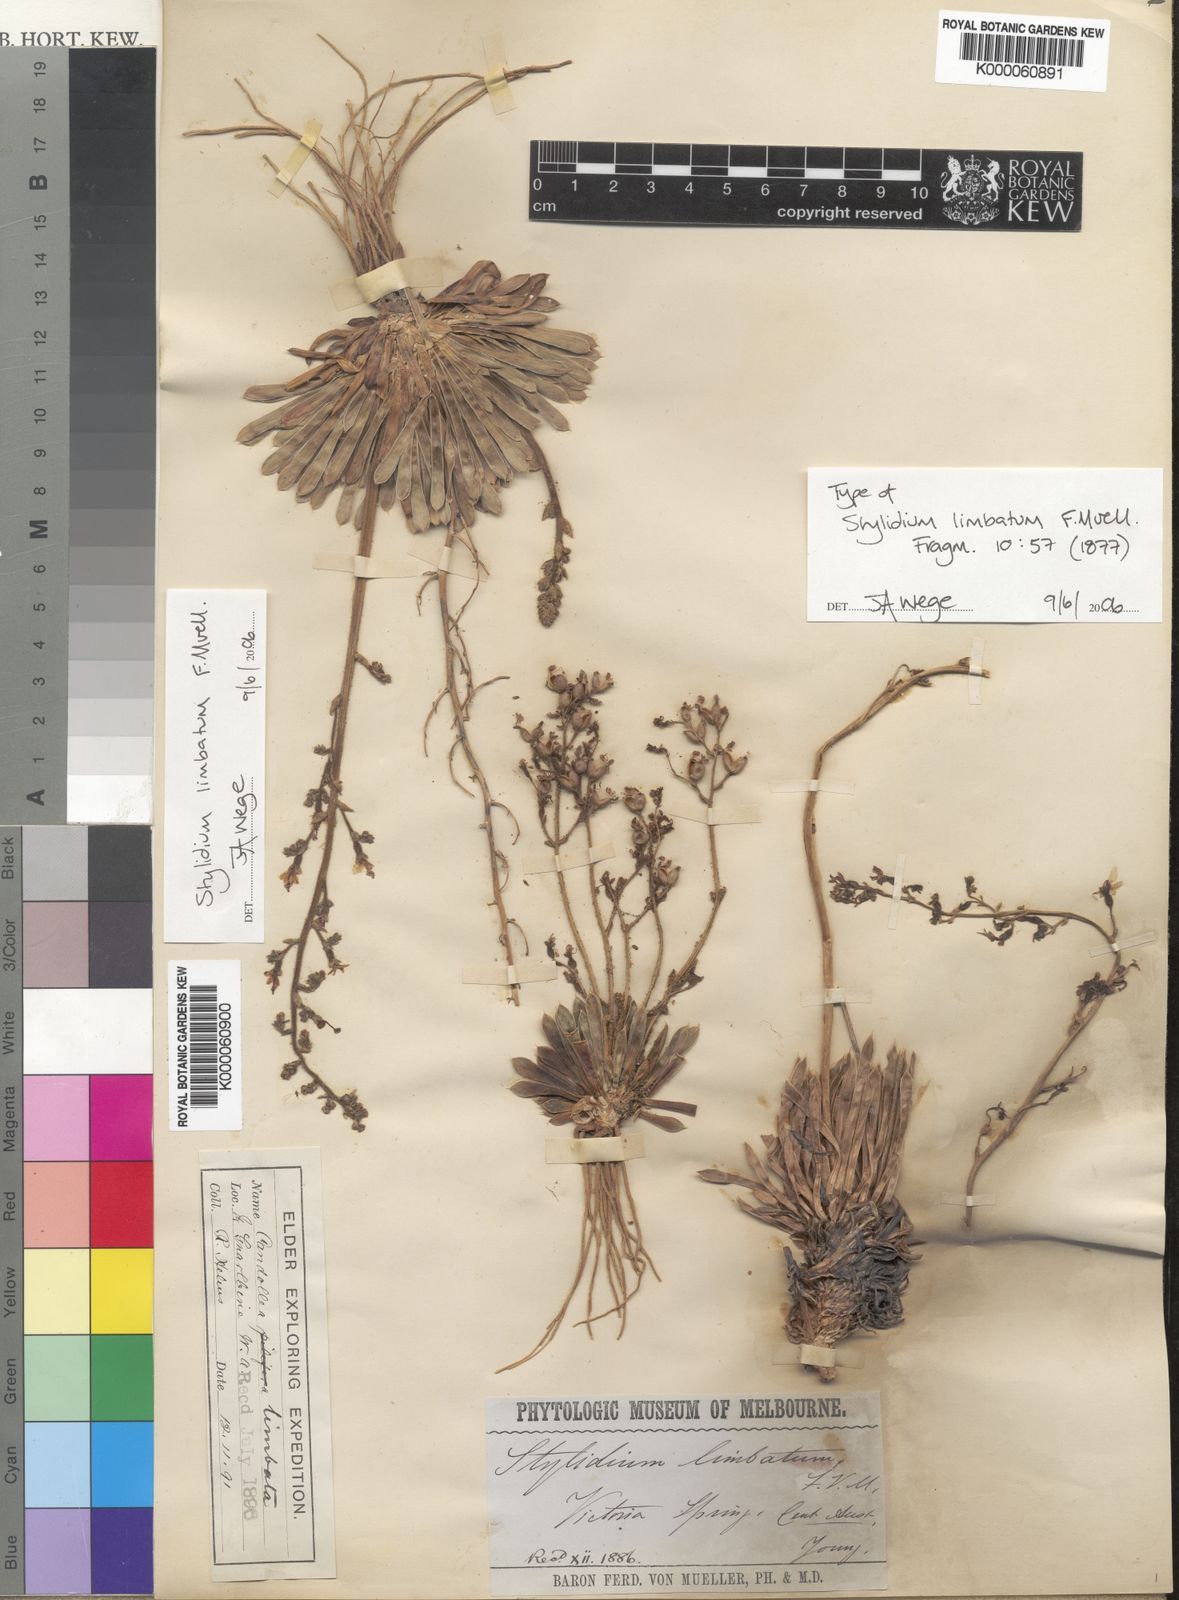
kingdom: Plantae
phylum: Tracheophyta
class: Magnoliopsida
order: Asterales
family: Stylidiaceae
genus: Stylidium
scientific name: Stylidium limbatum
